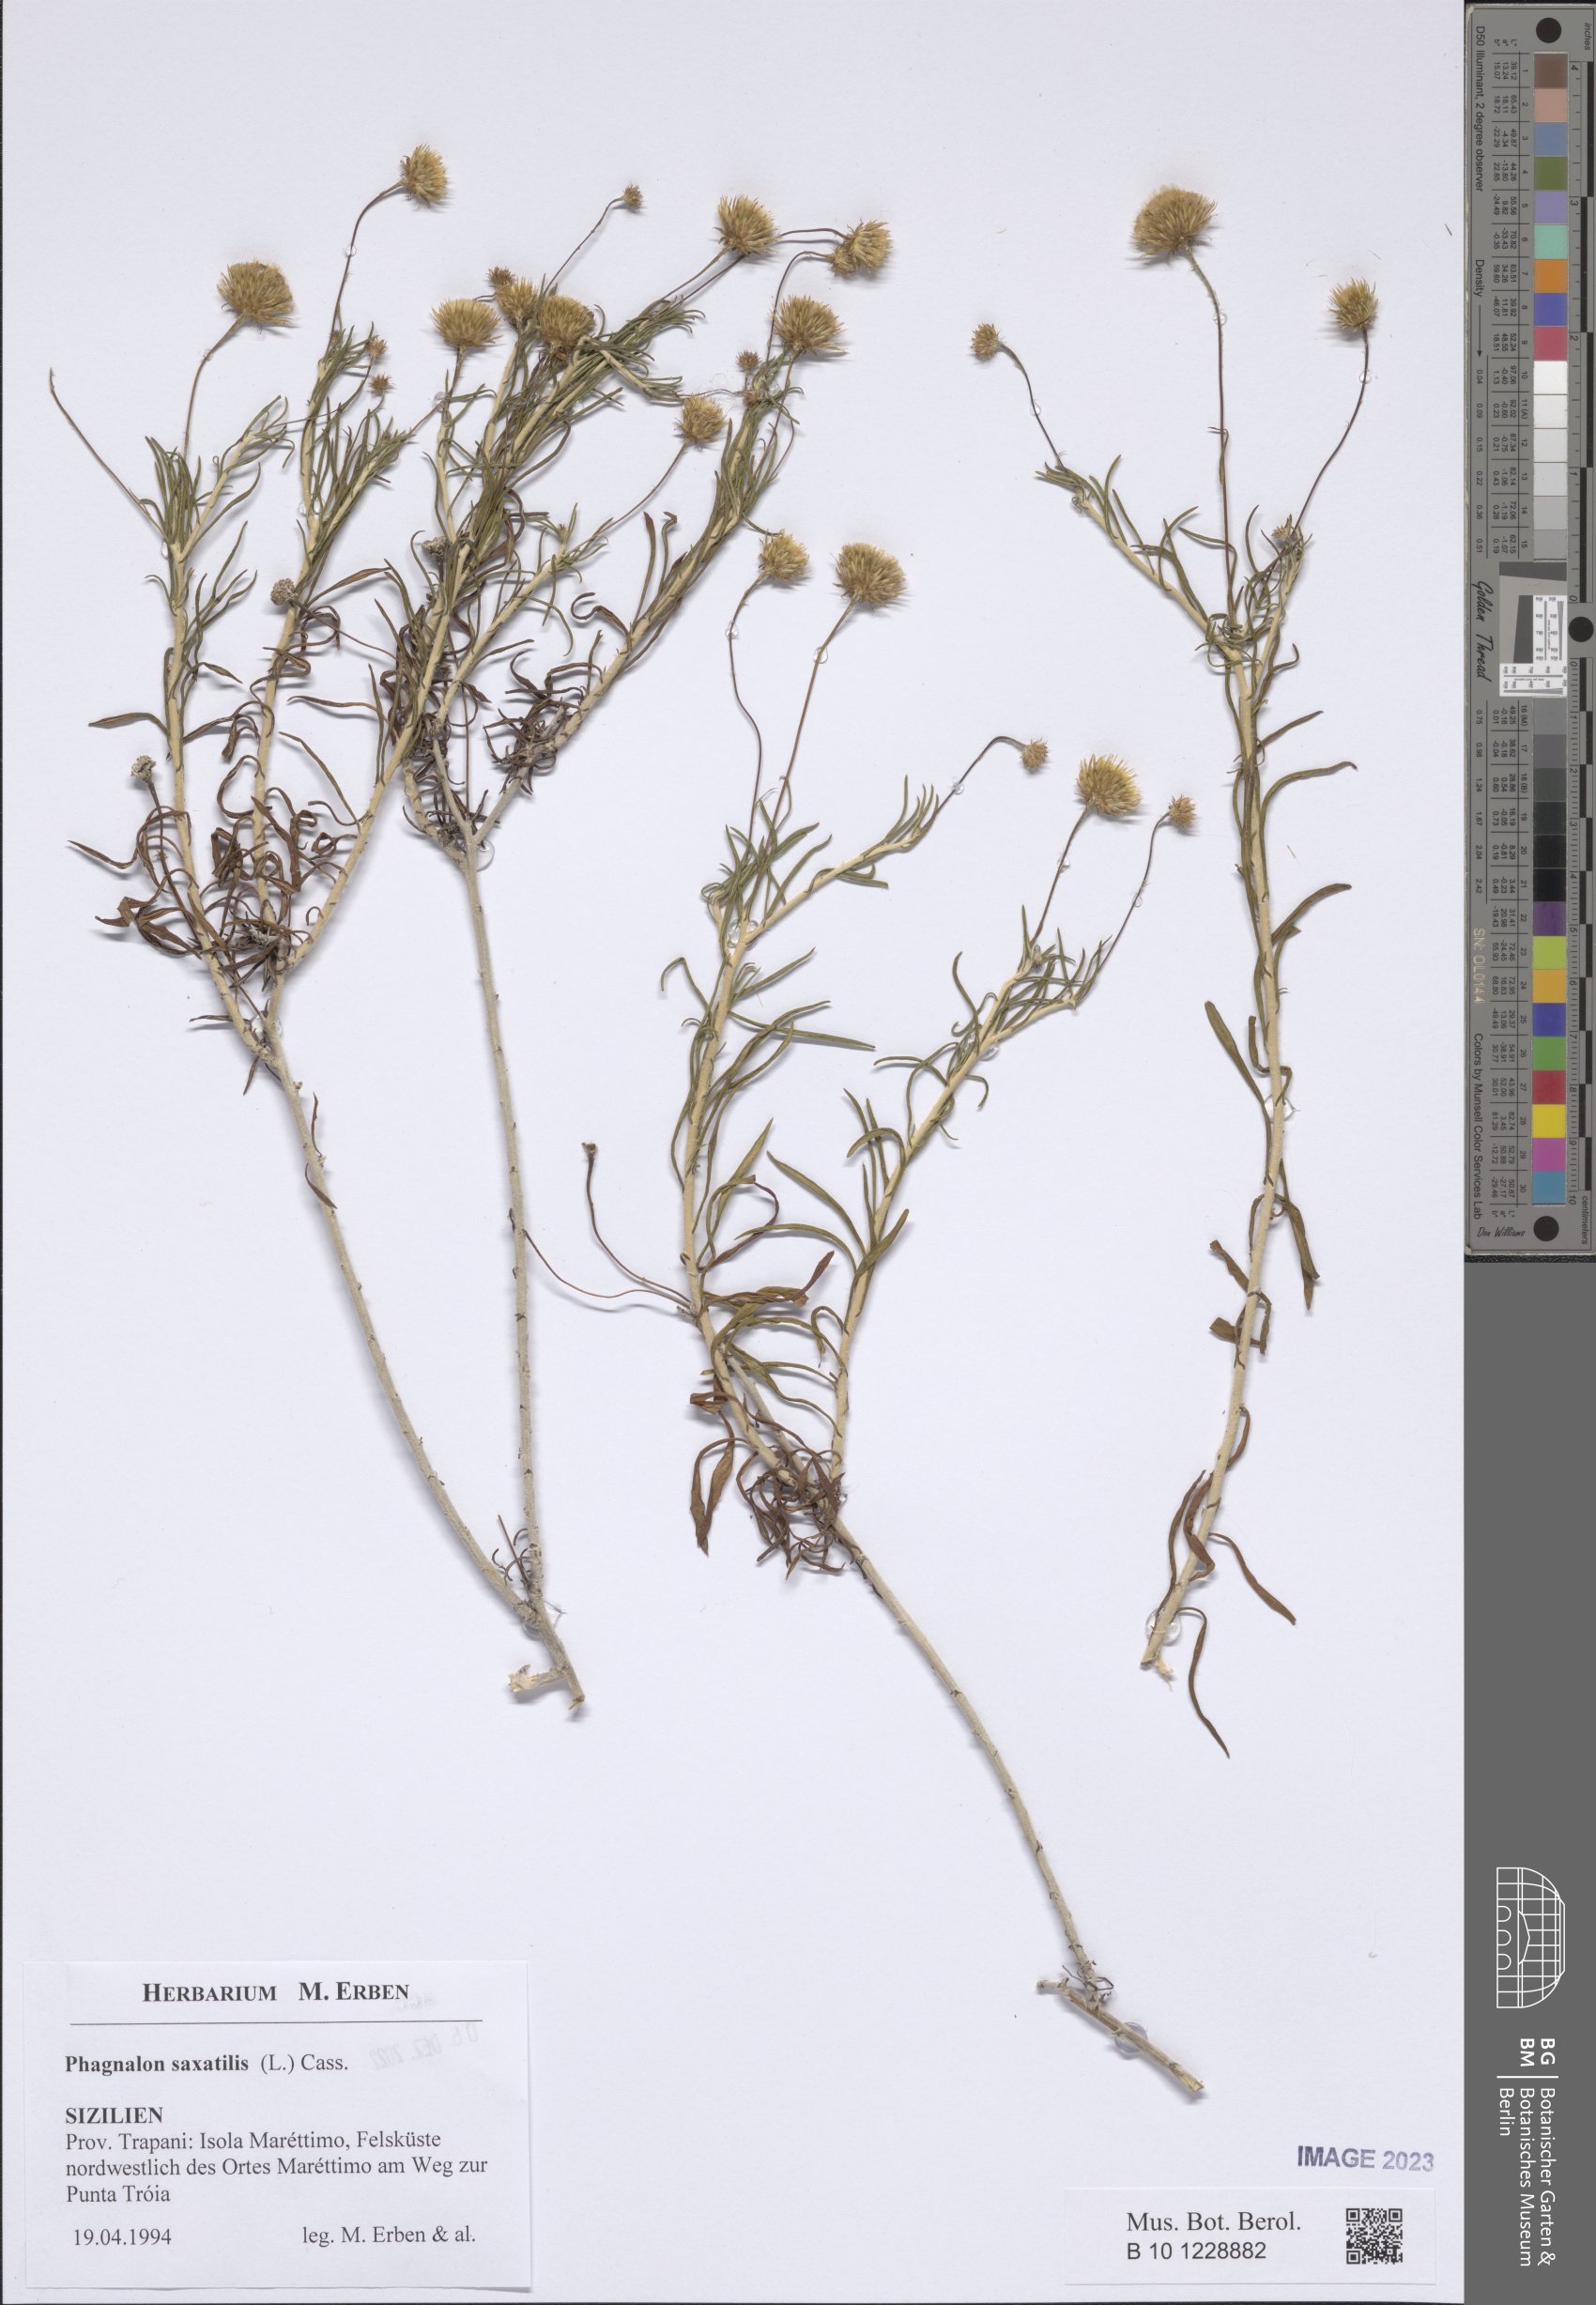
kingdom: Plantae
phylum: Tracheophyta
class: Magnoliopsida
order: Asterales
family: Asteraceae
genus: Phagnalon
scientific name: Phagnalon saxatile
